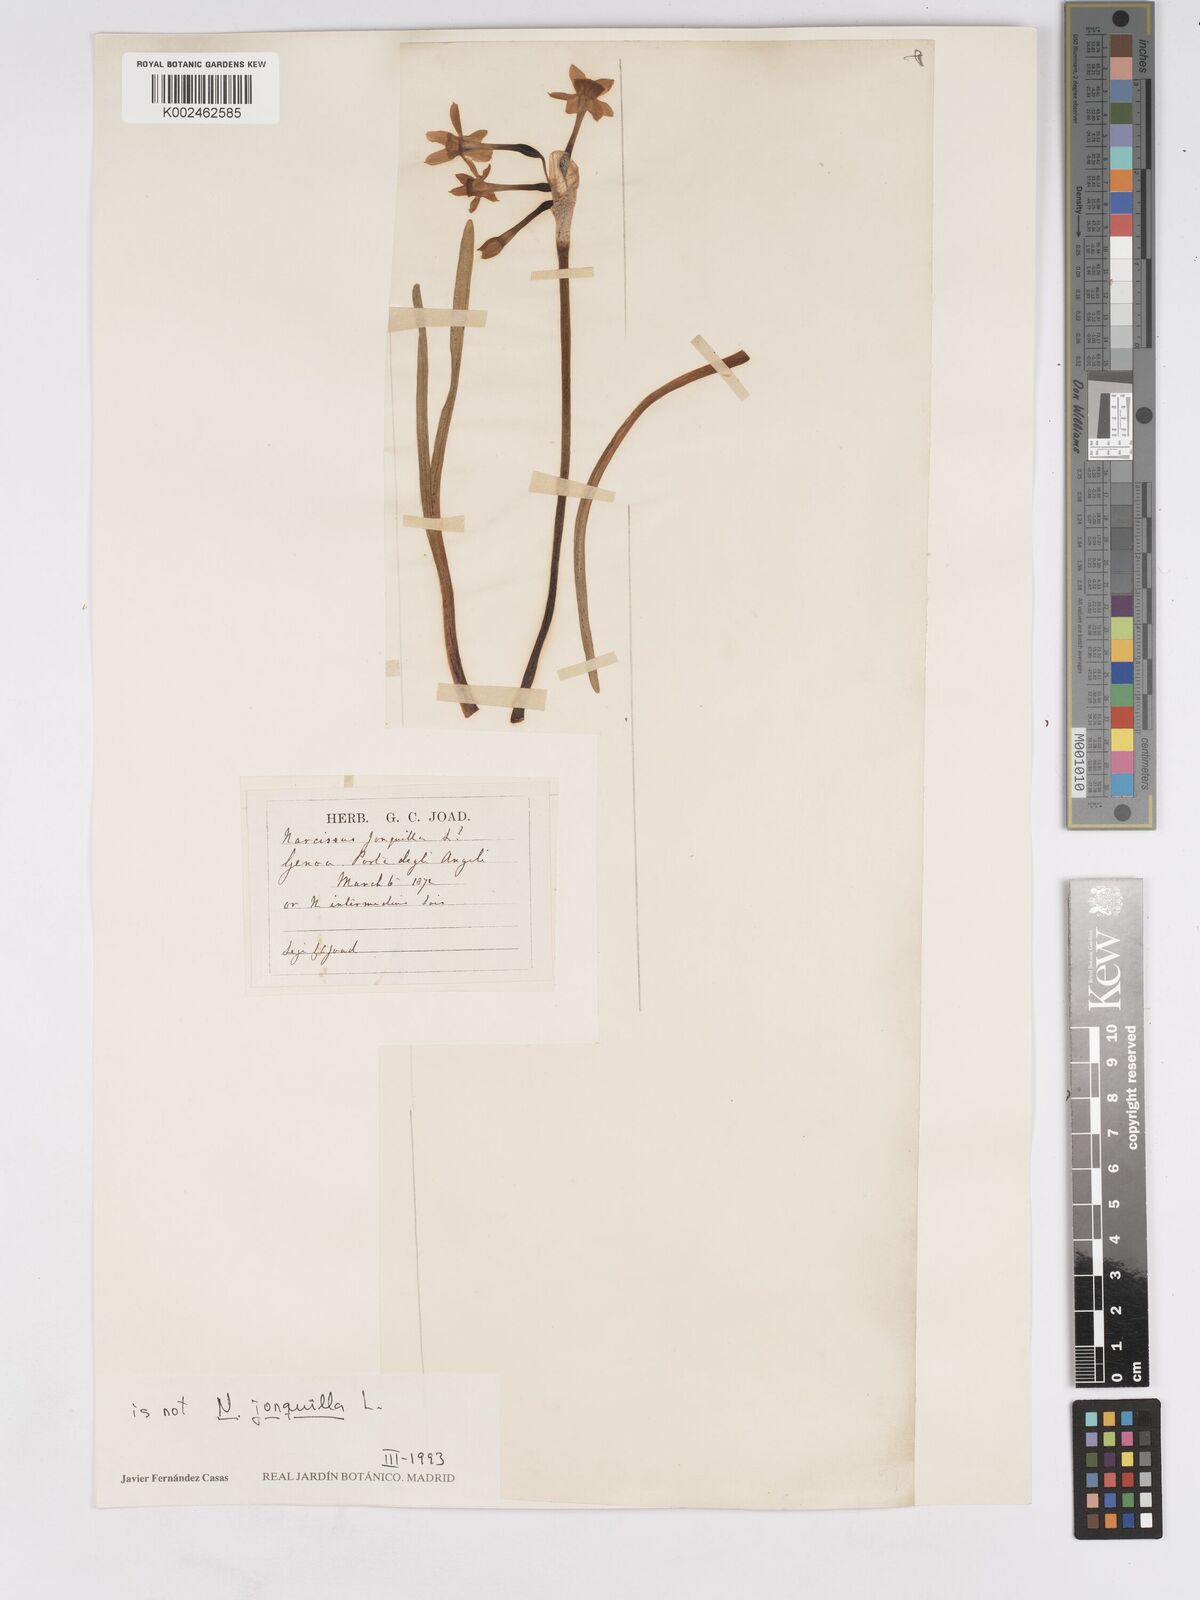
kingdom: Plantae
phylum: Tracheophyta
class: Liliopsida
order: Asparagales
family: Amaryllidaceae
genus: Narcissus
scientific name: Narcissus jonquilla
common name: Jonquil
